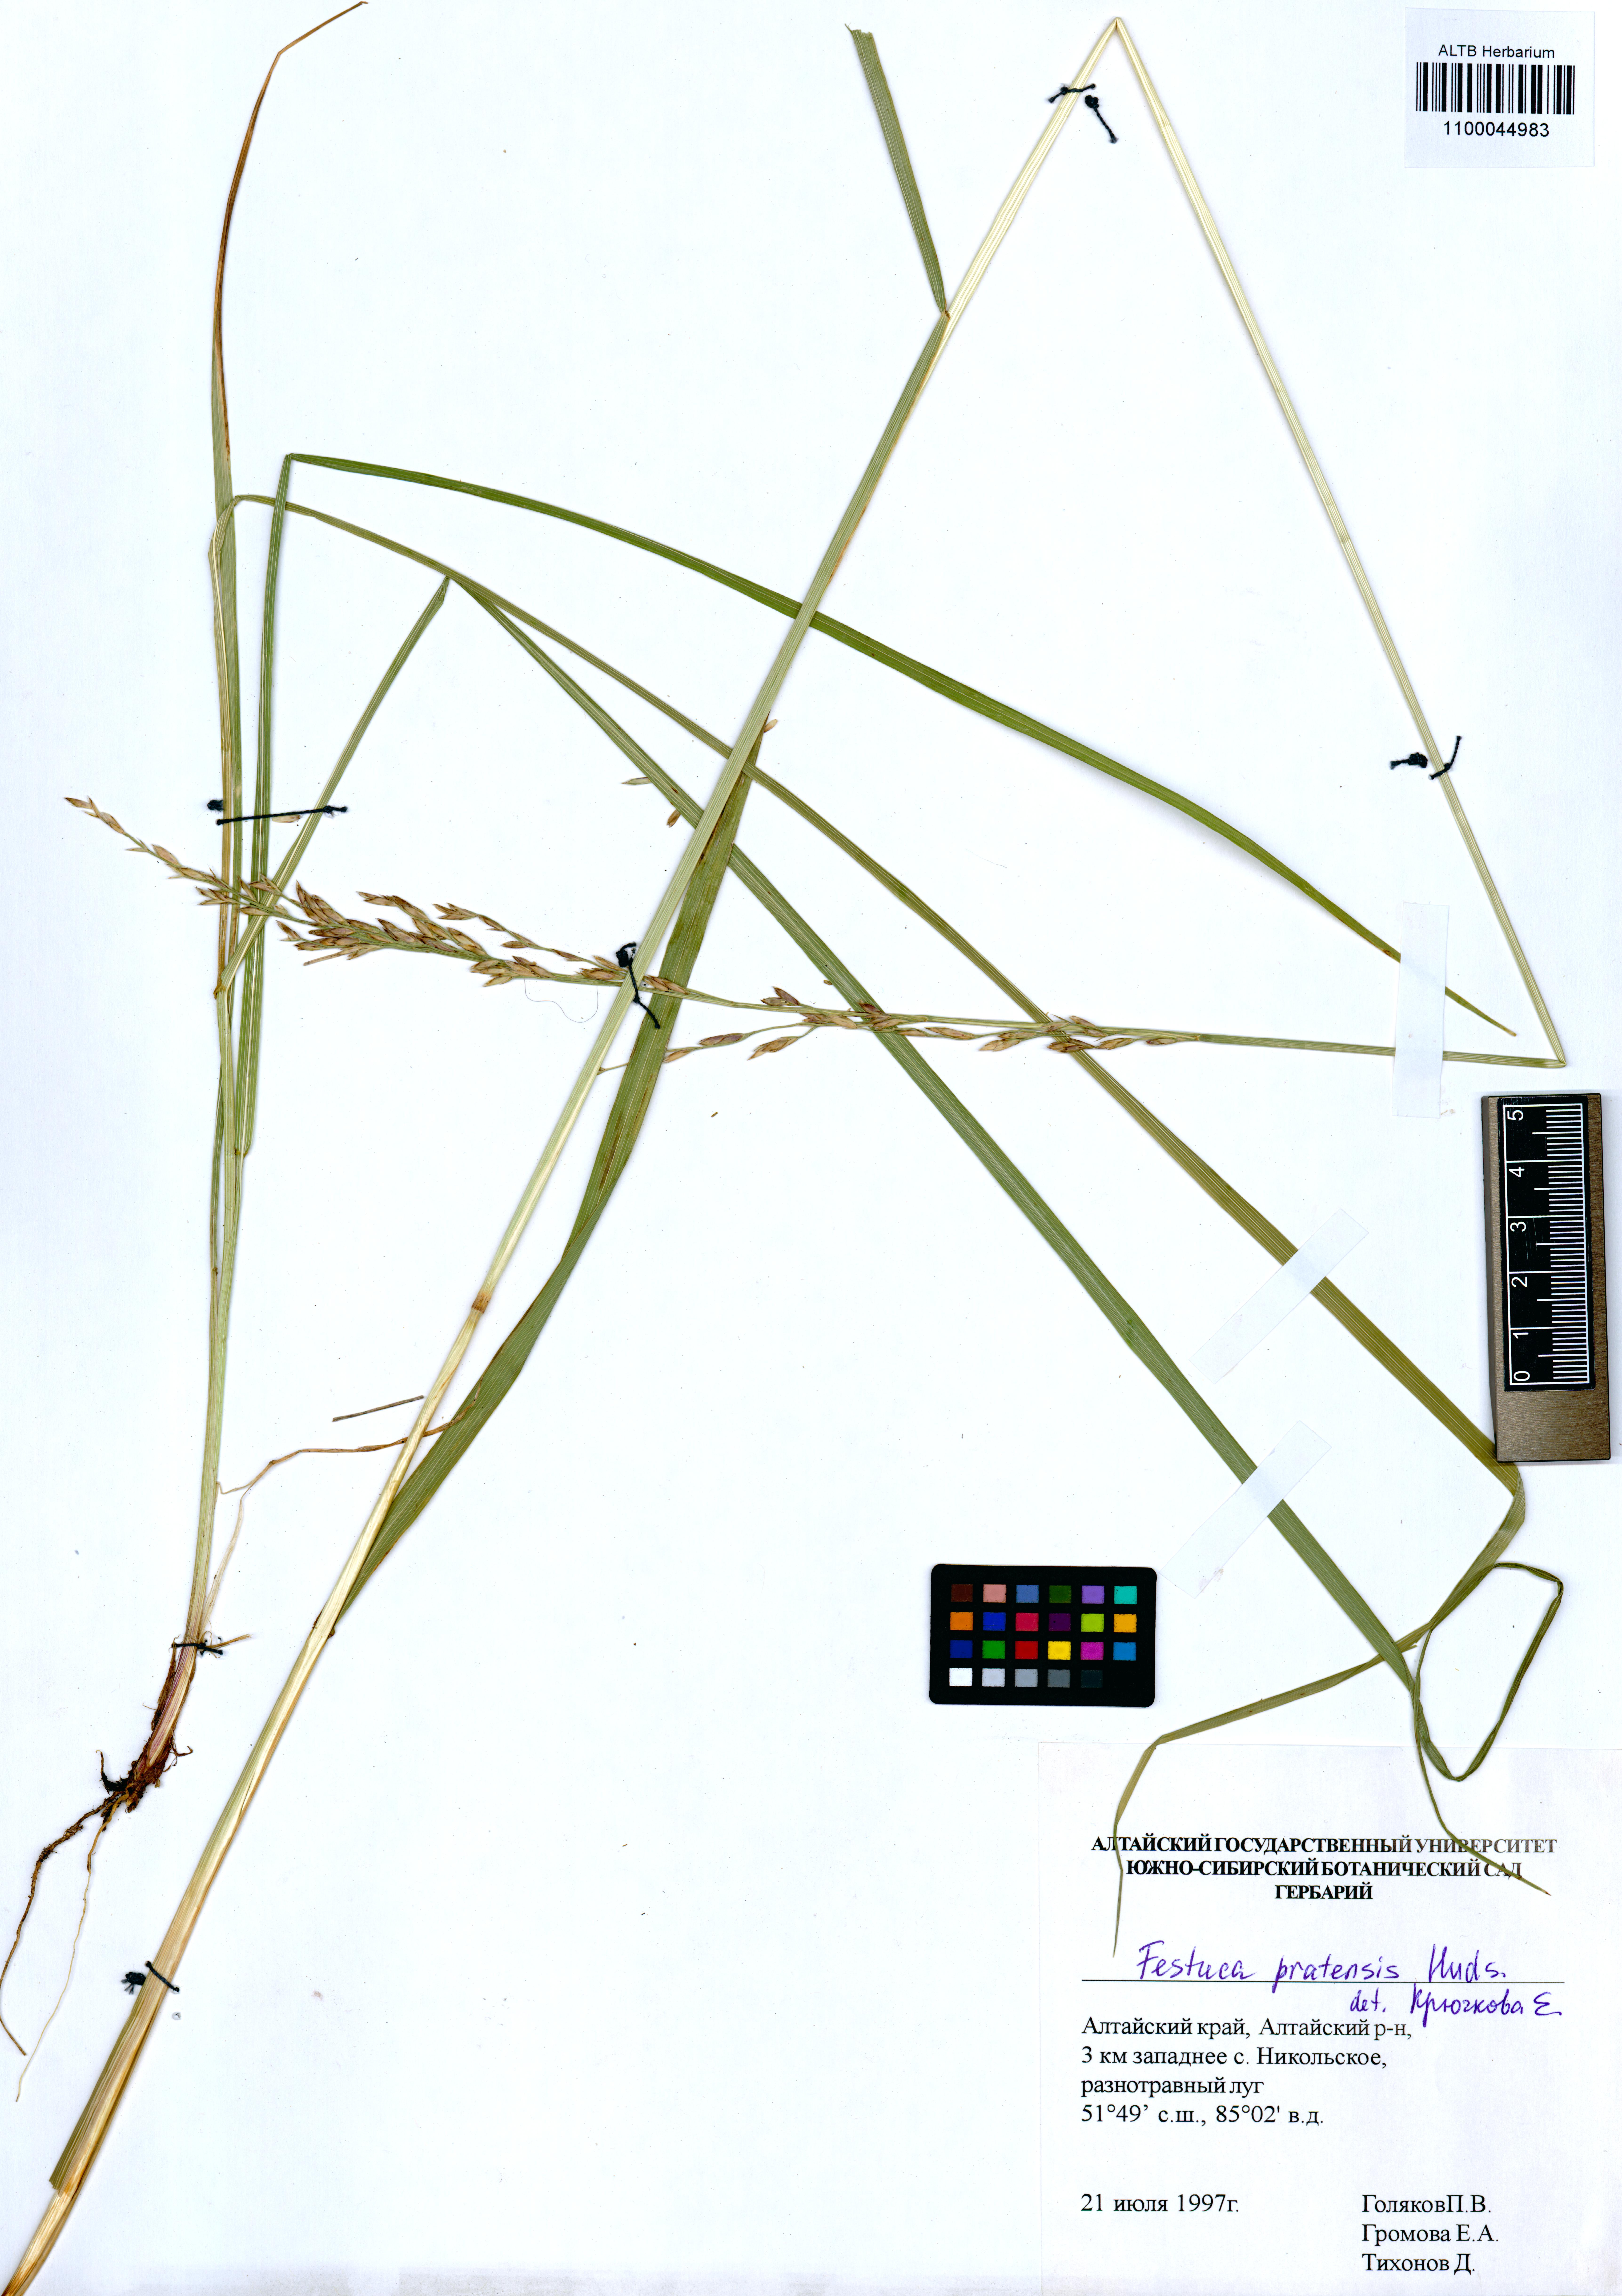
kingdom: Plantae
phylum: Tracheophyta
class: Liliopsida
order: Poales
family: Poaceae
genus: Lolium
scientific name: Lolium pratense
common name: Dover grass
